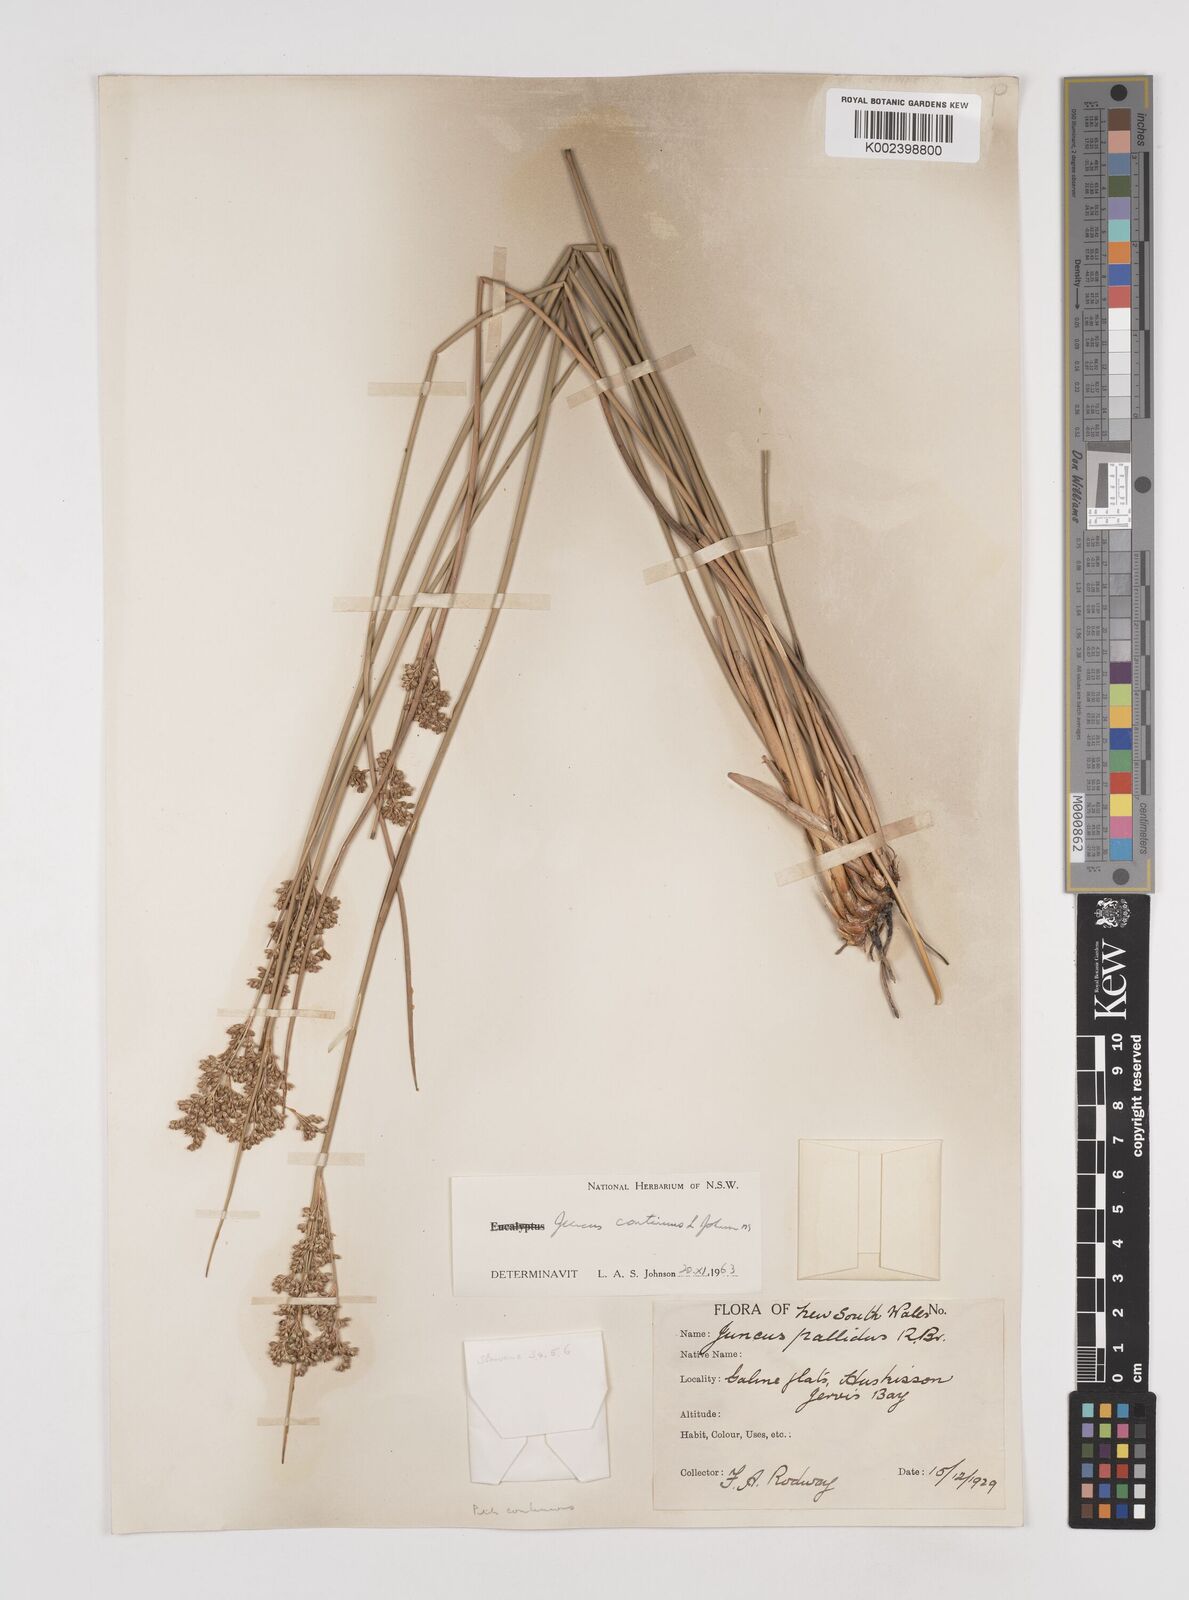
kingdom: Plantae
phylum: Tracheophyta
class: Liliopsida
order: Poales
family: Juncaceae
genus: Juncus
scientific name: Juncus continuus
